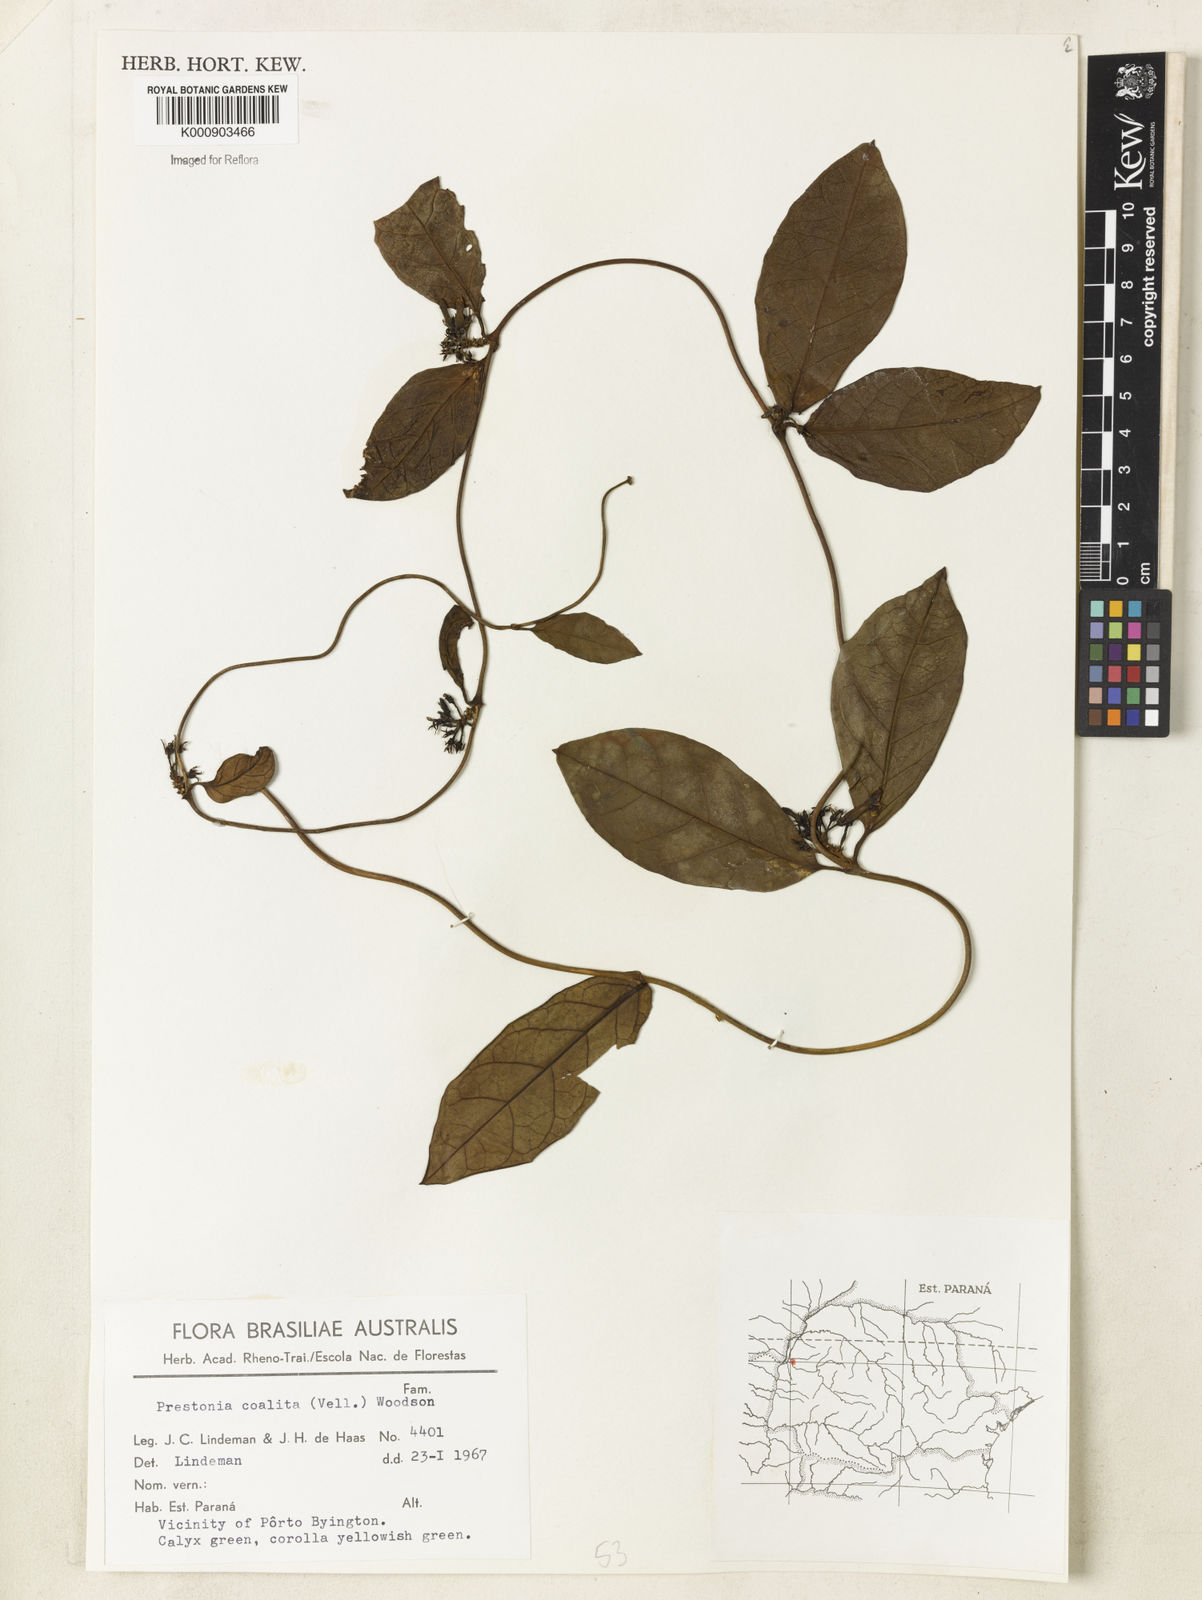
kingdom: Plantae
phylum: Tracheophyta
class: Magnoliopsida
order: Gentianales
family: Apocynaceae
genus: Prestonia
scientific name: Prestonia coalita
